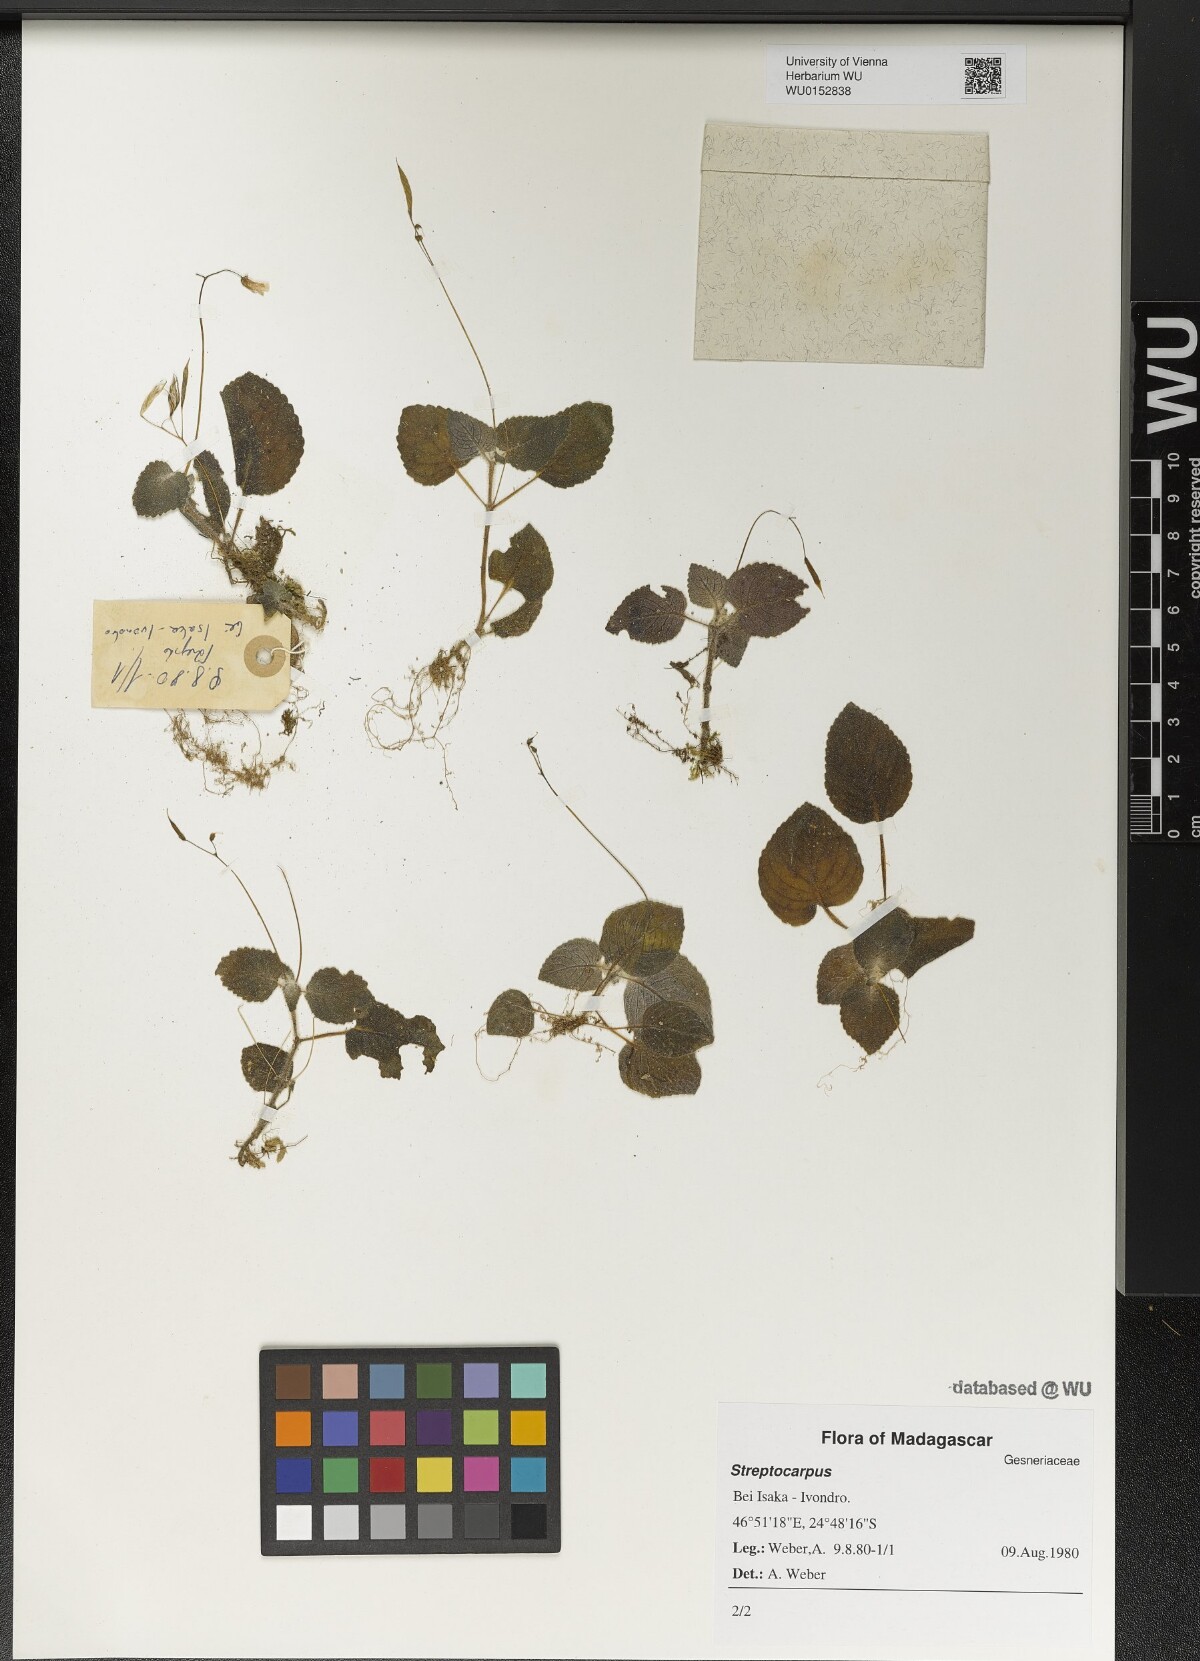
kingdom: Plantae
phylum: Tracheophyta
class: Magnoliopsida
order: Lamiales
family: Gesneriaceae
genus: Streptocarpus
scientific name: Streptocarpus
